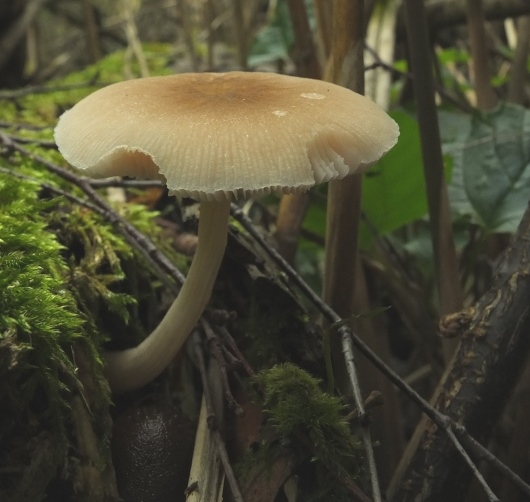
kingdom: Fungi
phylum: Basidiomycota
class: Agaricomycetes
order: Agaricales
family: Pluteaceae
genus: Pluteus
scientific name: Pluteus semibulbosus
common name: knoldet skærmhat
